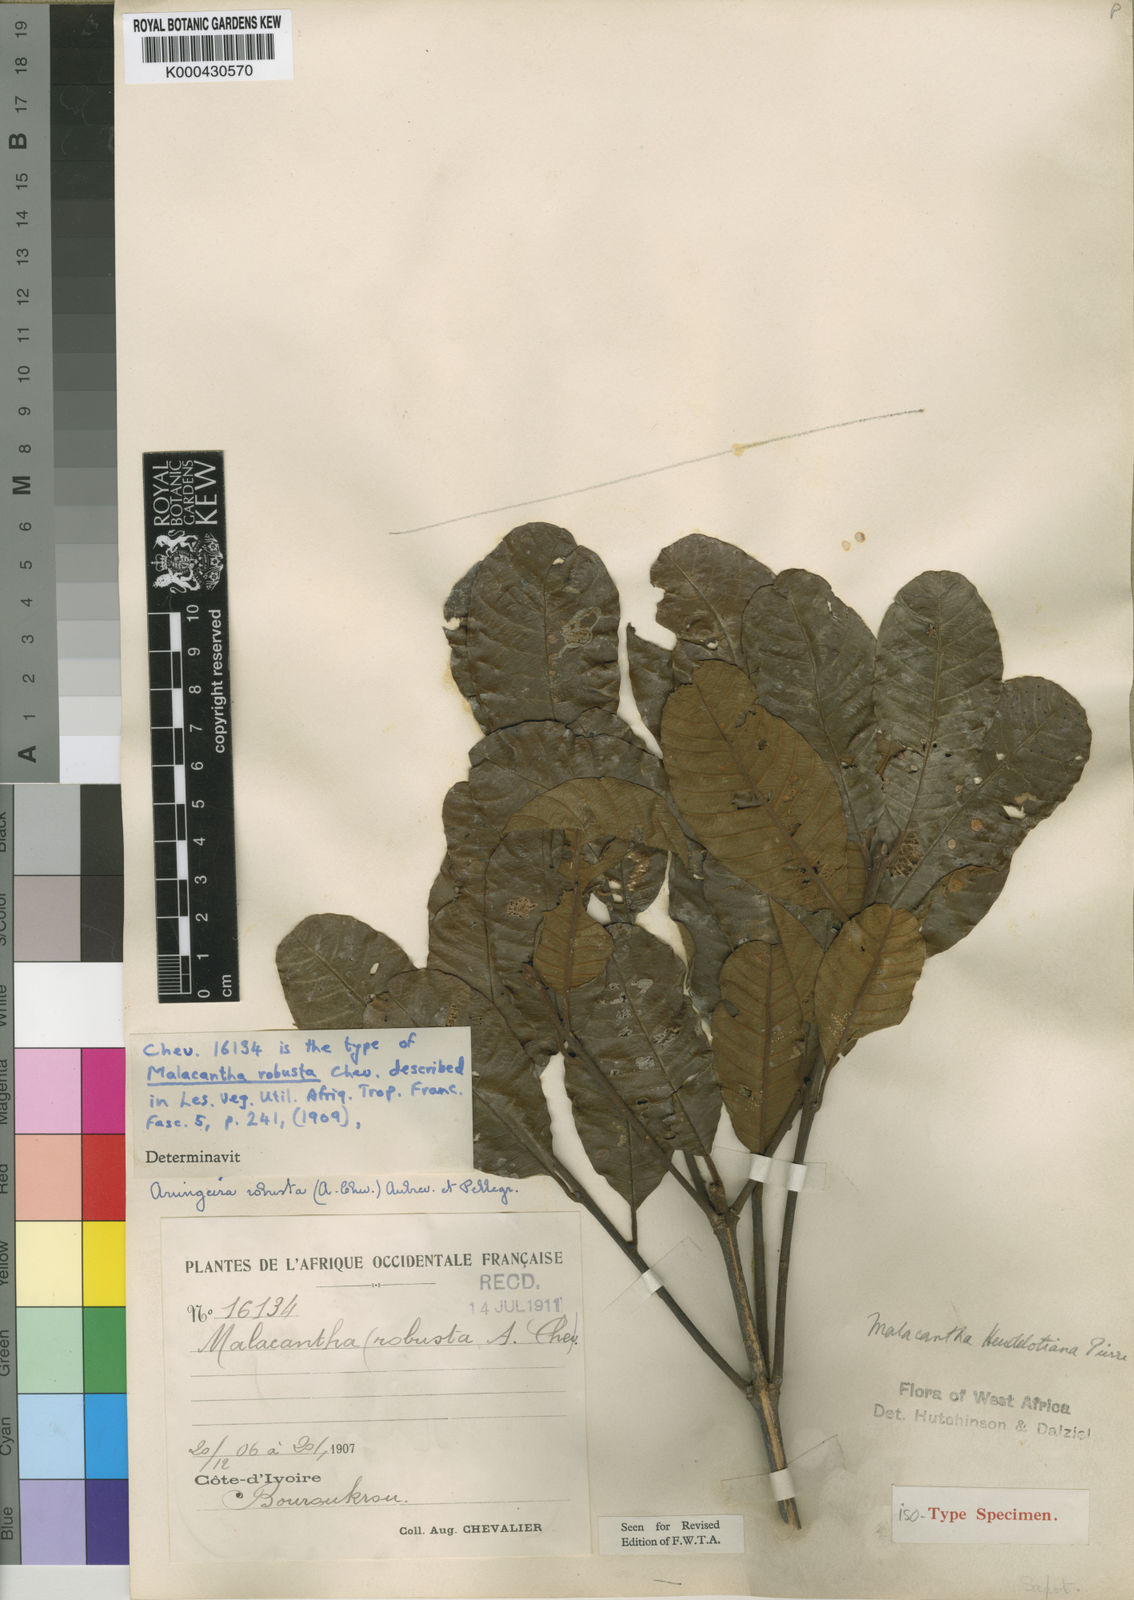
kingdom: Plantae
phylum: Tracheophyta
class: Magnoliopsida
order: Ericales
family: Sapotaceae
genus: Pouteria
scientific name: Pouteria cuspidata
